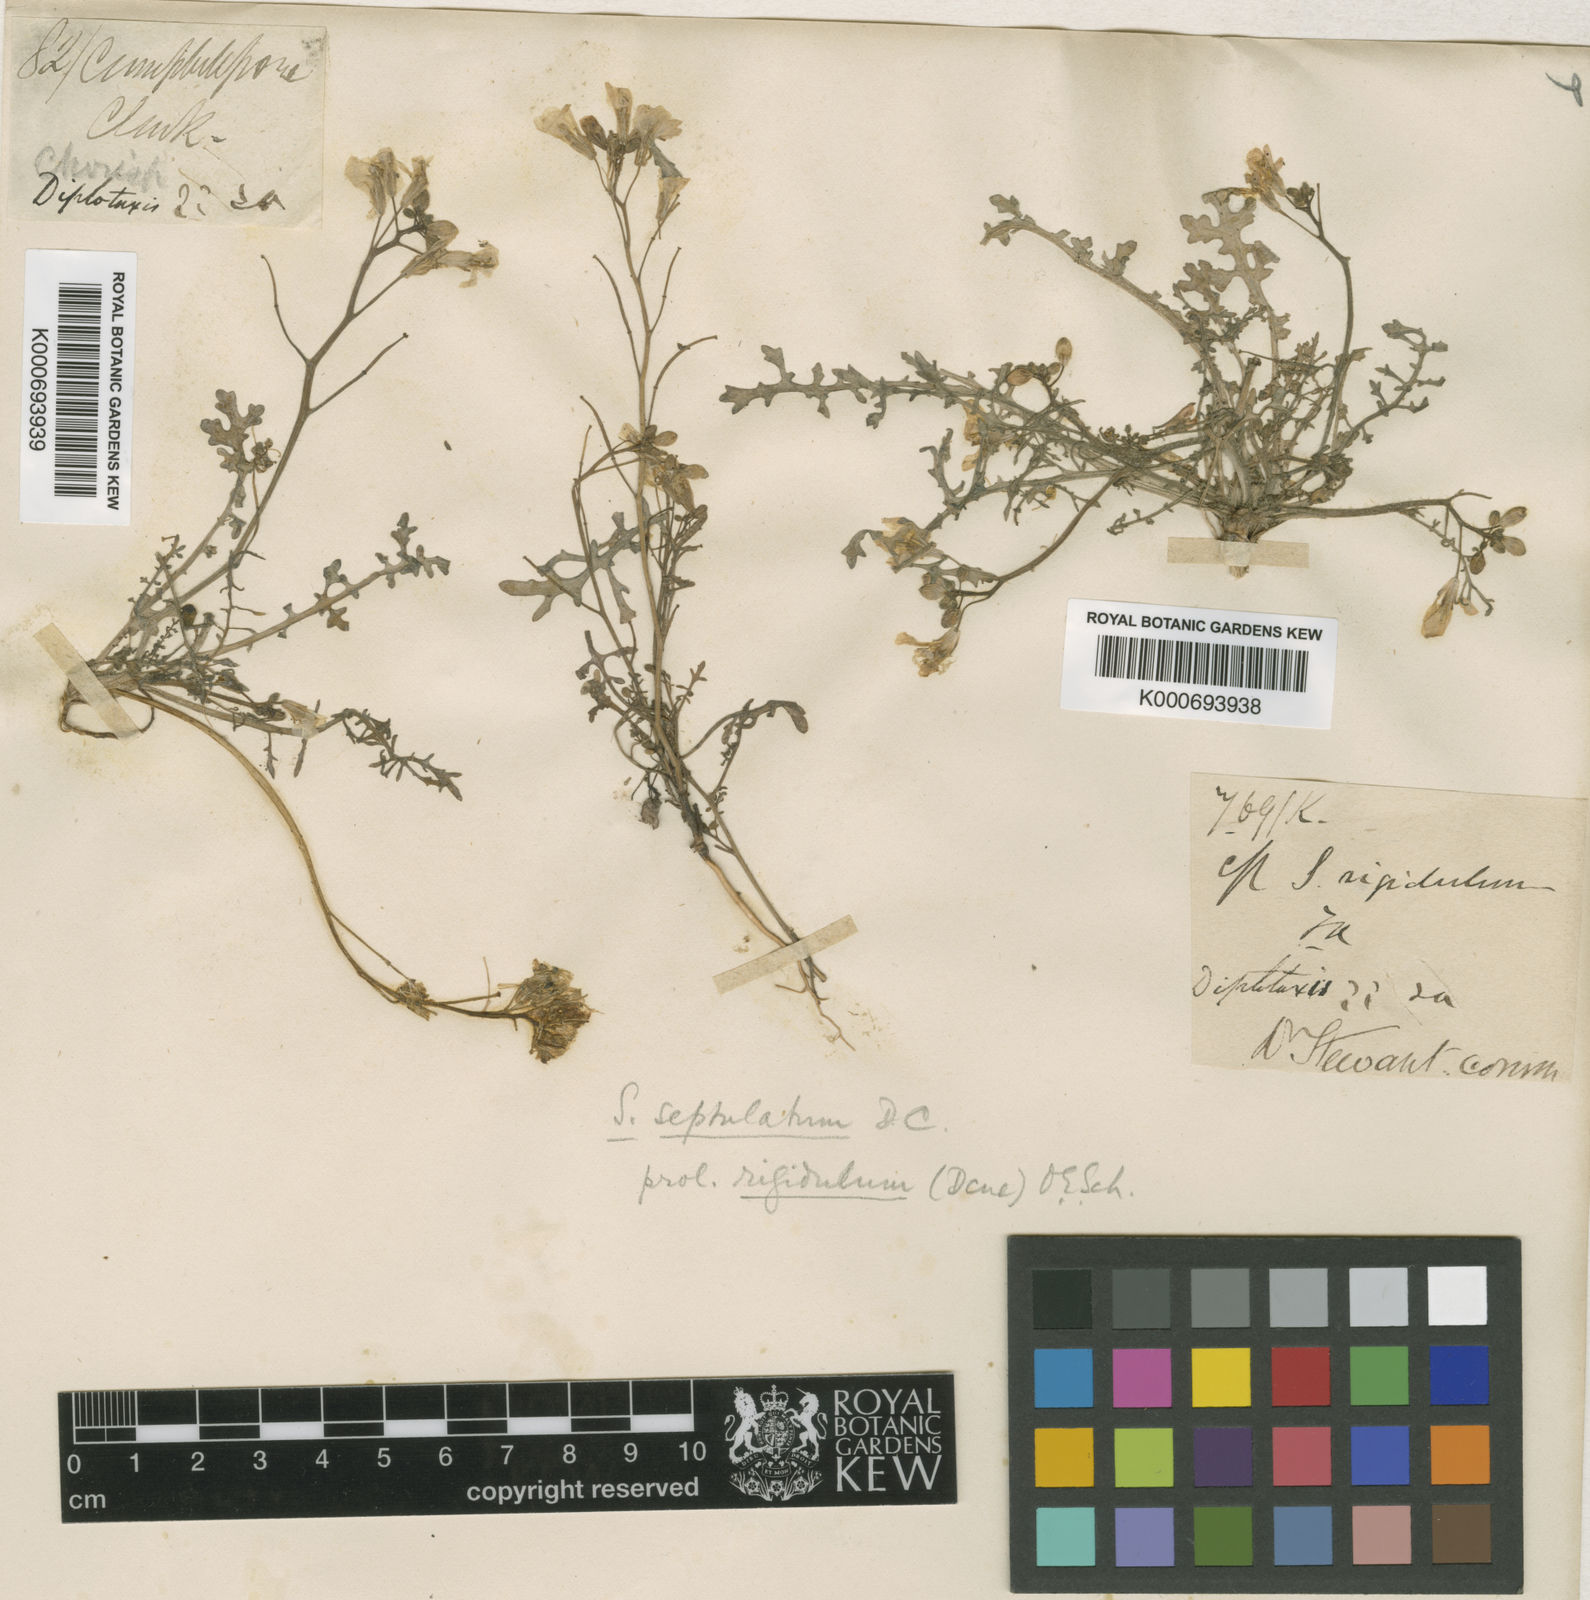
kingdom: Plantae
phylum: Tracheophyta
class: Magnoliopsida
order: Brassicales
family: Brassicaceae
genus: Sisymbrium
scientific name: Sisymbrium
